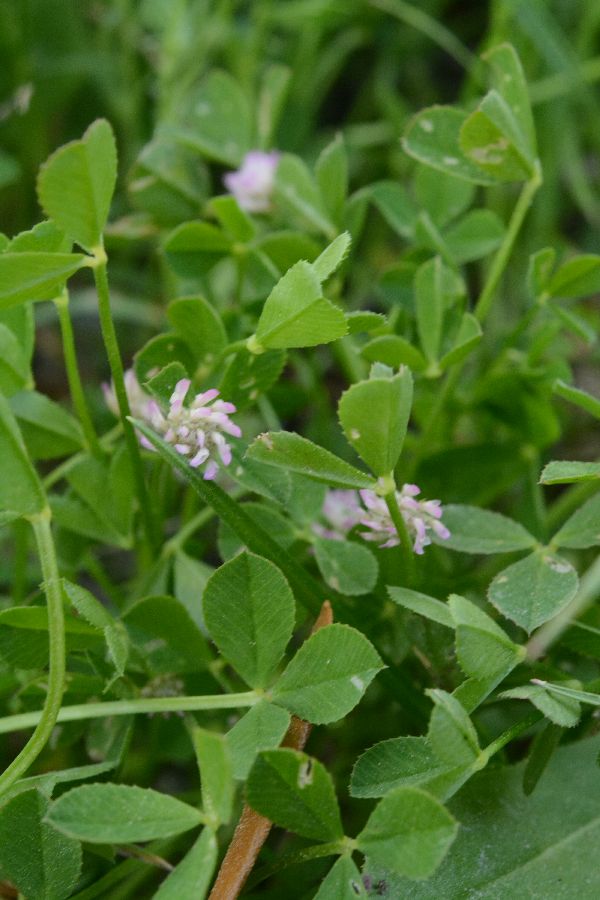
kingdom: Plantae
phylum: Tracheophyta
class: Magnoliopsida
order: Fabales
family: Fabaceae
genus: Trifolium
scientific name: Trifolium tomentosum
